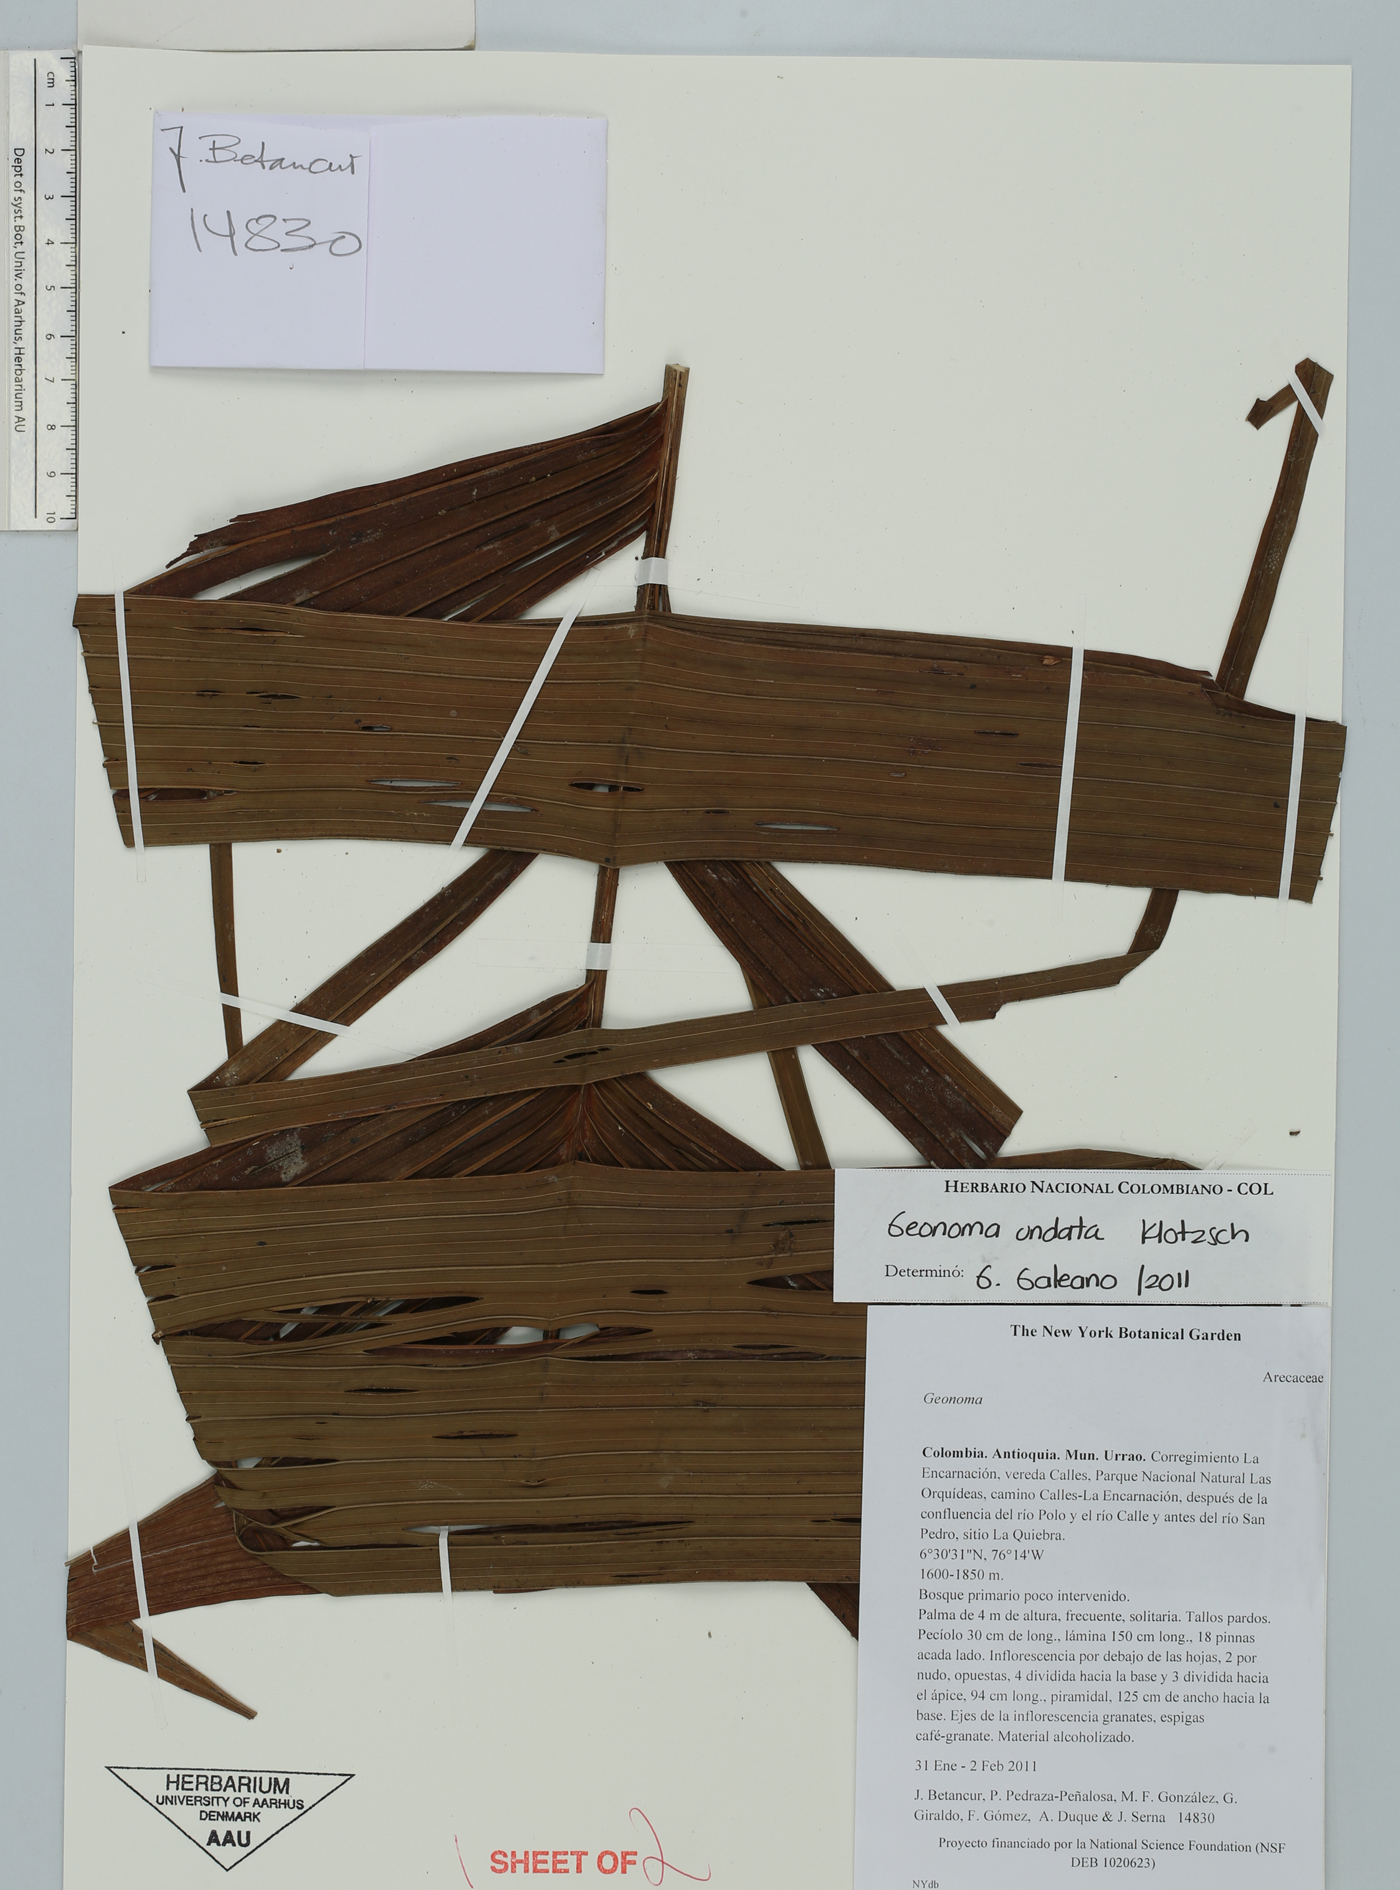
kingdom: Plantae
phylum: Tracheophyta
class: Liliopsida
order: Arecales
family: Arecaceae
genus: Geonoma
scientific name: Geonoma undata
